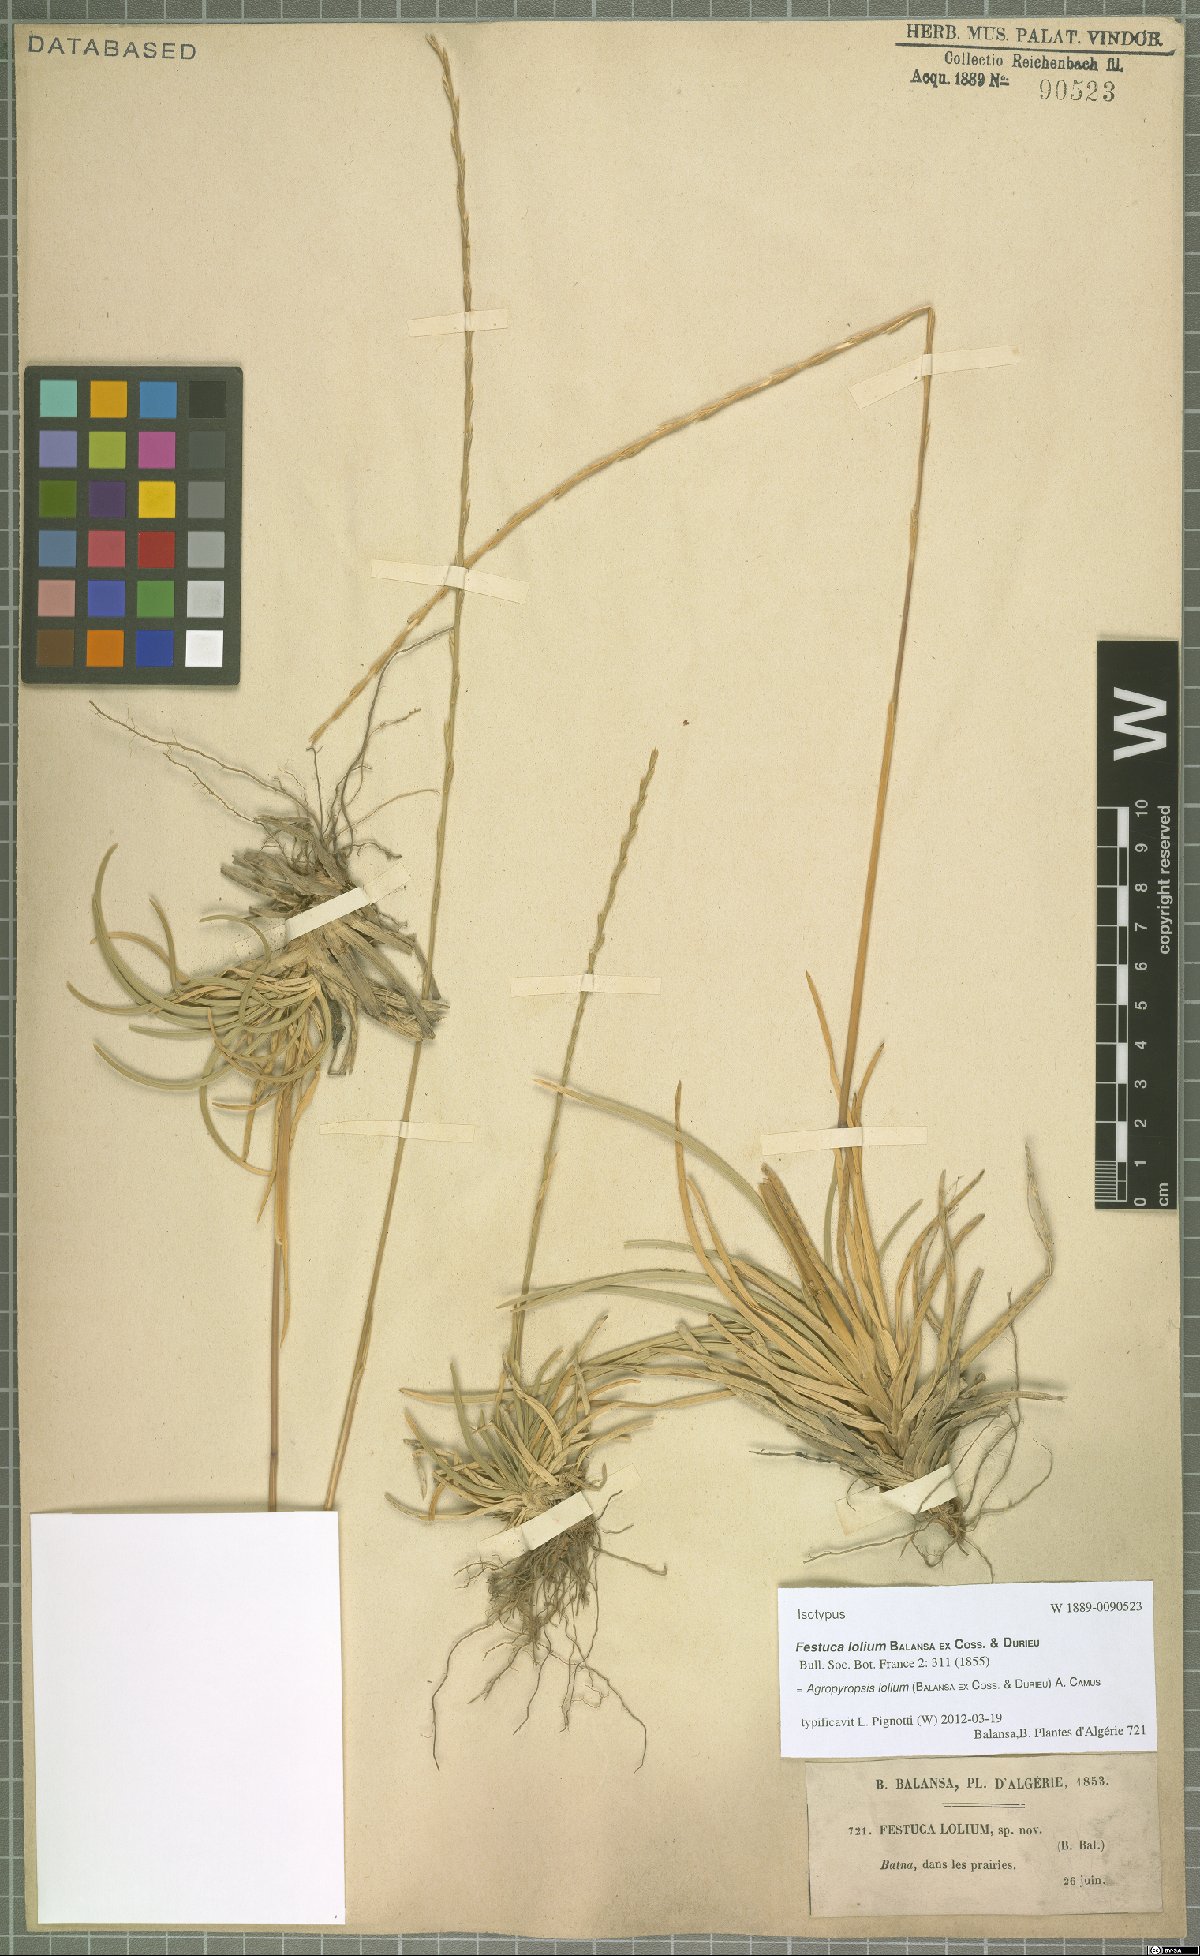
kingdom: Plantae
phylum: Tracheophyta
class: Liliopsida
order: Poales
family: Poaceae
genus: Agropyropsis
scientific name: Agropyropsis lolium
